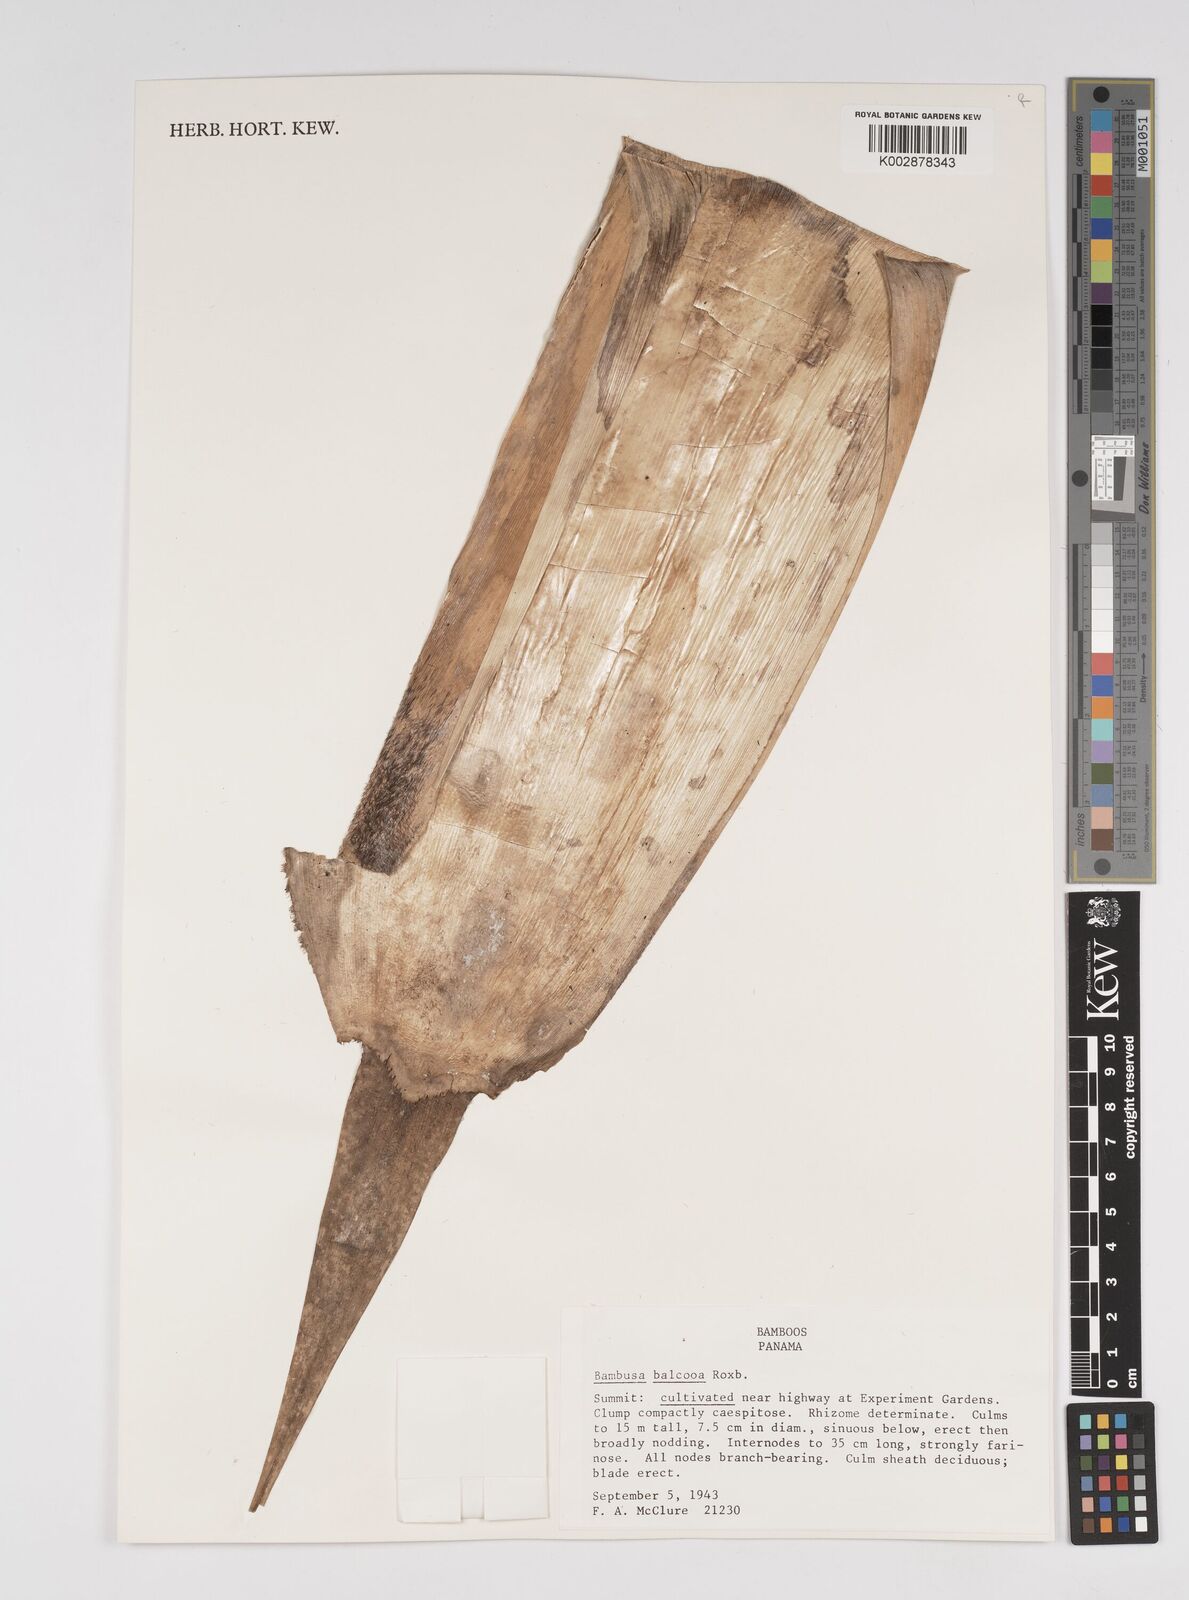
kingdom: Plantae
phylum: Tracheophyta
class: Liliopsida
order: Poales
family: Poaceae
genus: Bambusa
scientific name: Bambusa balcooa
